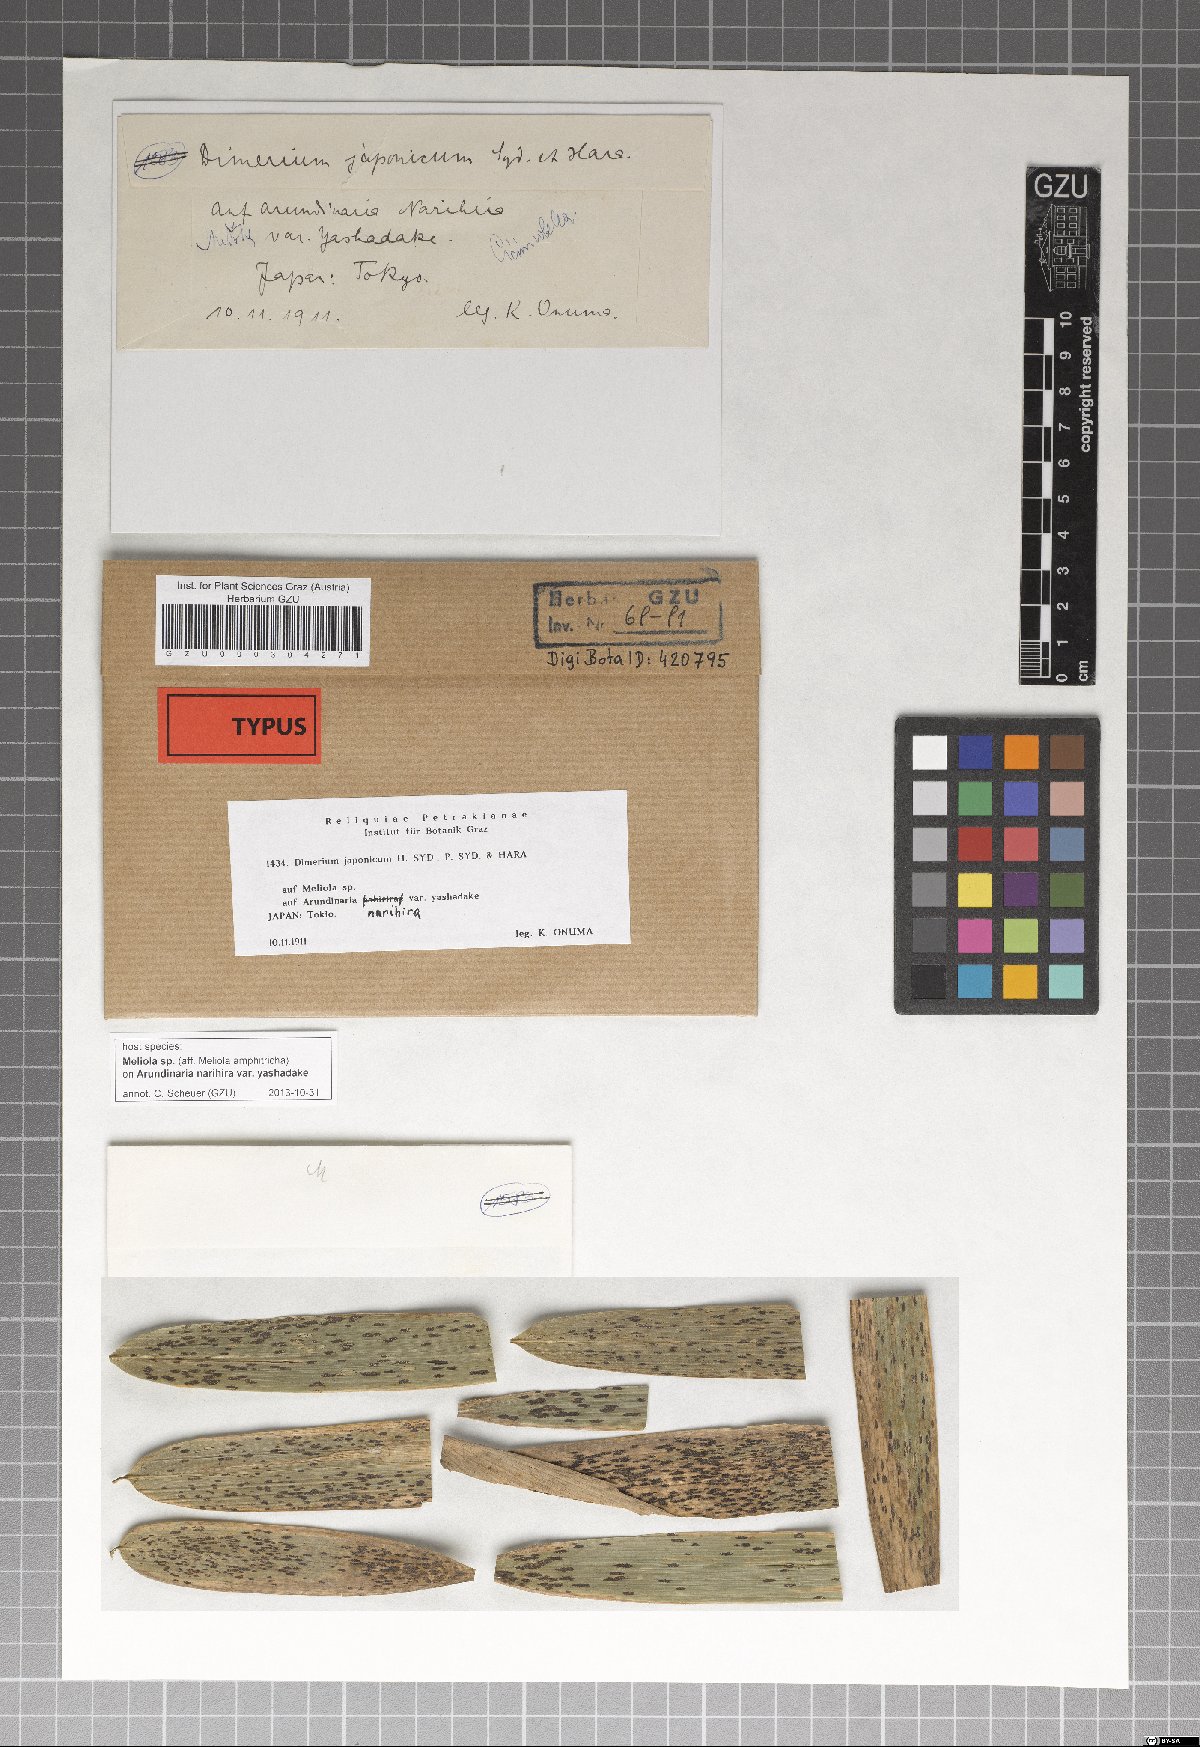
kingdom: Fungi
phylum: Ascomycota
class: Dothideomycetes
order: Dothideales
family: Parodiopsidaceae
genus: Dimerium
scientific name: Dimerium japonicum
